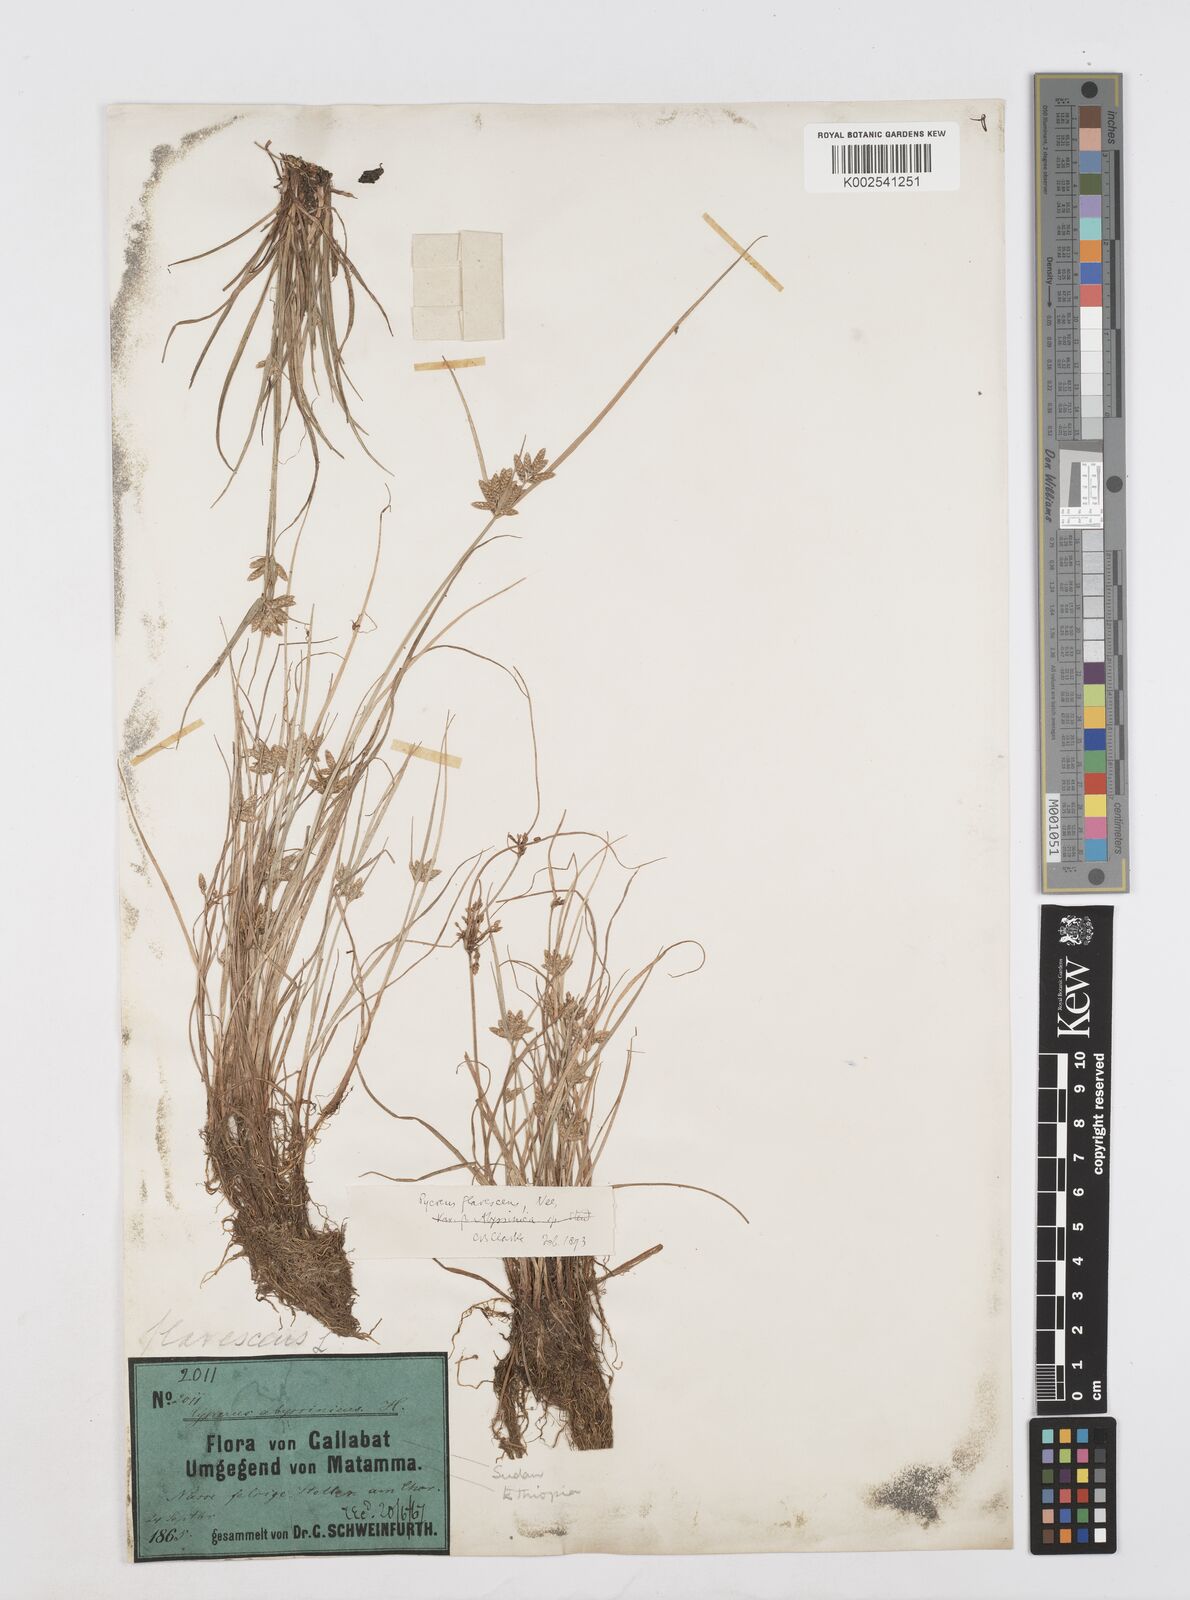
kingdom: Plantae
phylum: Tracheophyta
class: Liliopsida
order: Poales
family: Cyperaceae
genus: Cyperus
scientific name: Cyperus flavescens
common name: Yellow galingale
